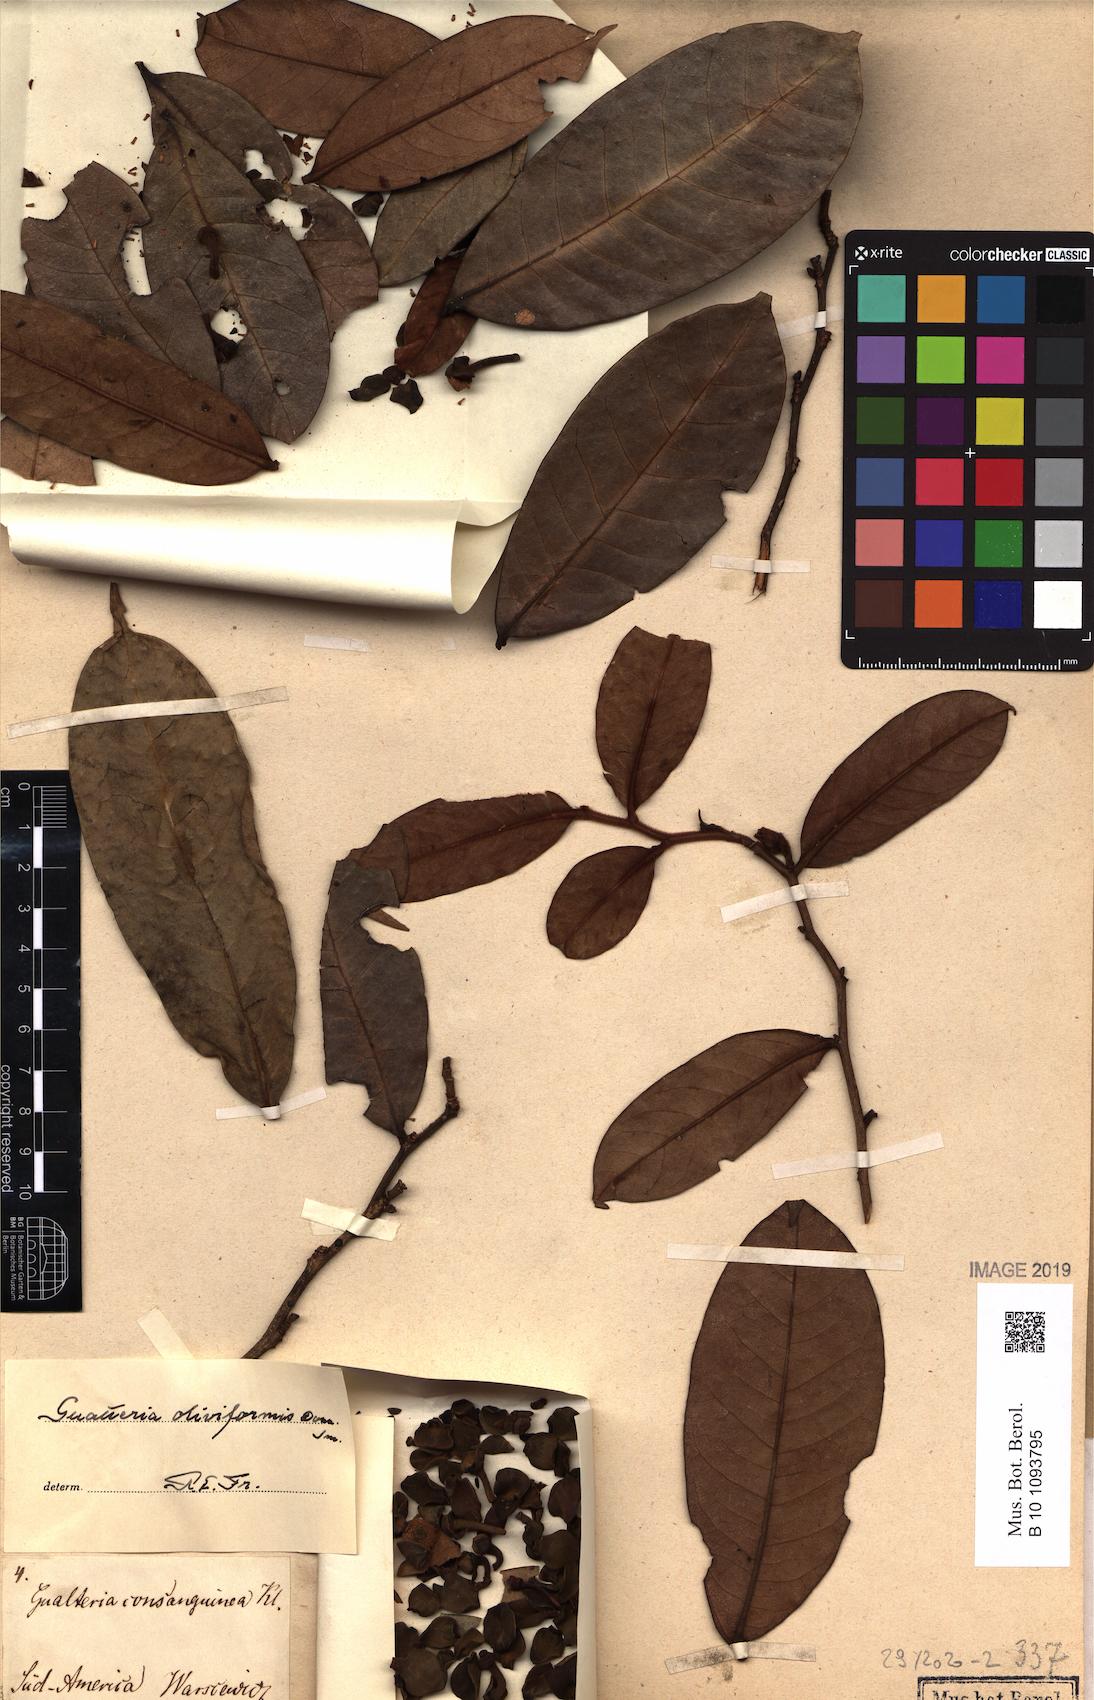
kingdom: Plantae
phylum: Tracheophyta
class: Magnoliopsida
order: Magnoliales
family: Annonaceae
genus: Guatteria
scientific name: Guatteria oliviformis
